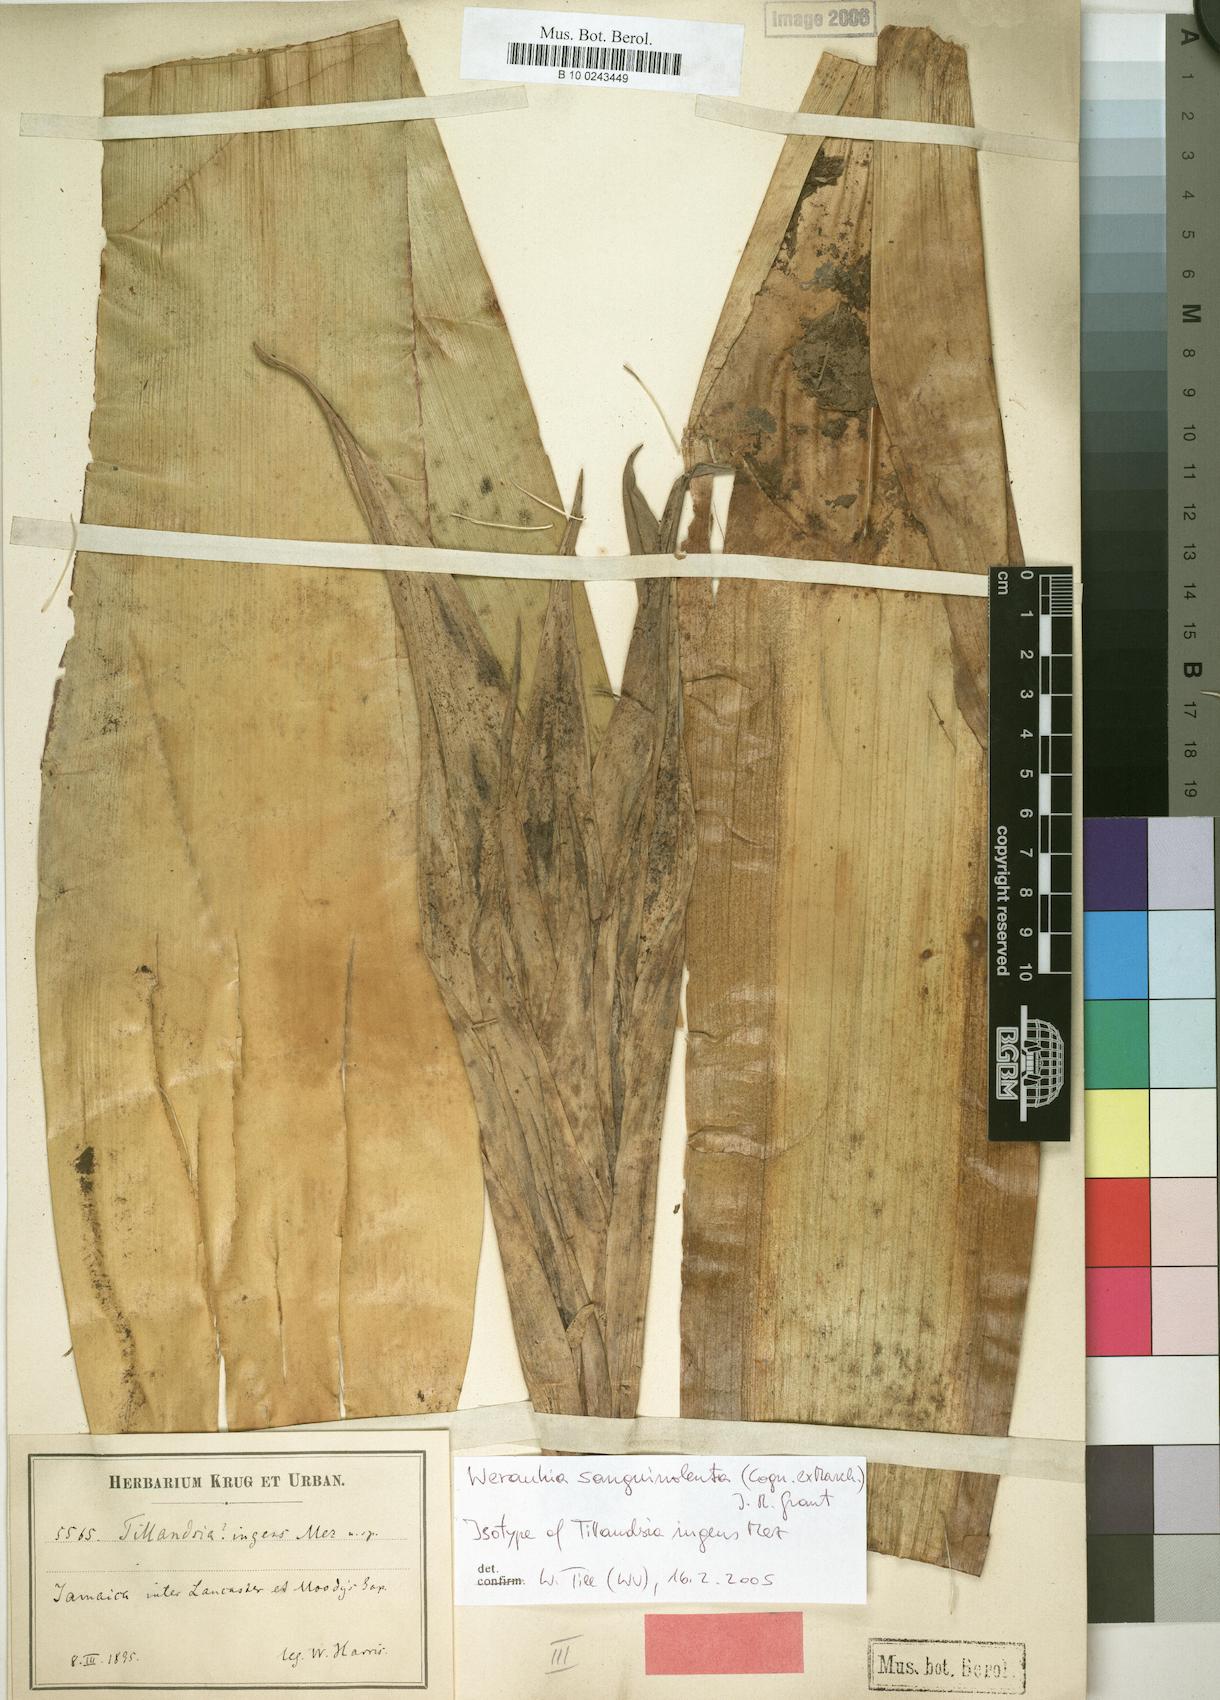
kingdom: Plantae
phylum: Tracheophyta
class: Liliopsida
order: Poales
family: Bromeliaceae
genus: Werauhia
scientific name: Werauhia sanguinolenta
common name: Bromeliad
